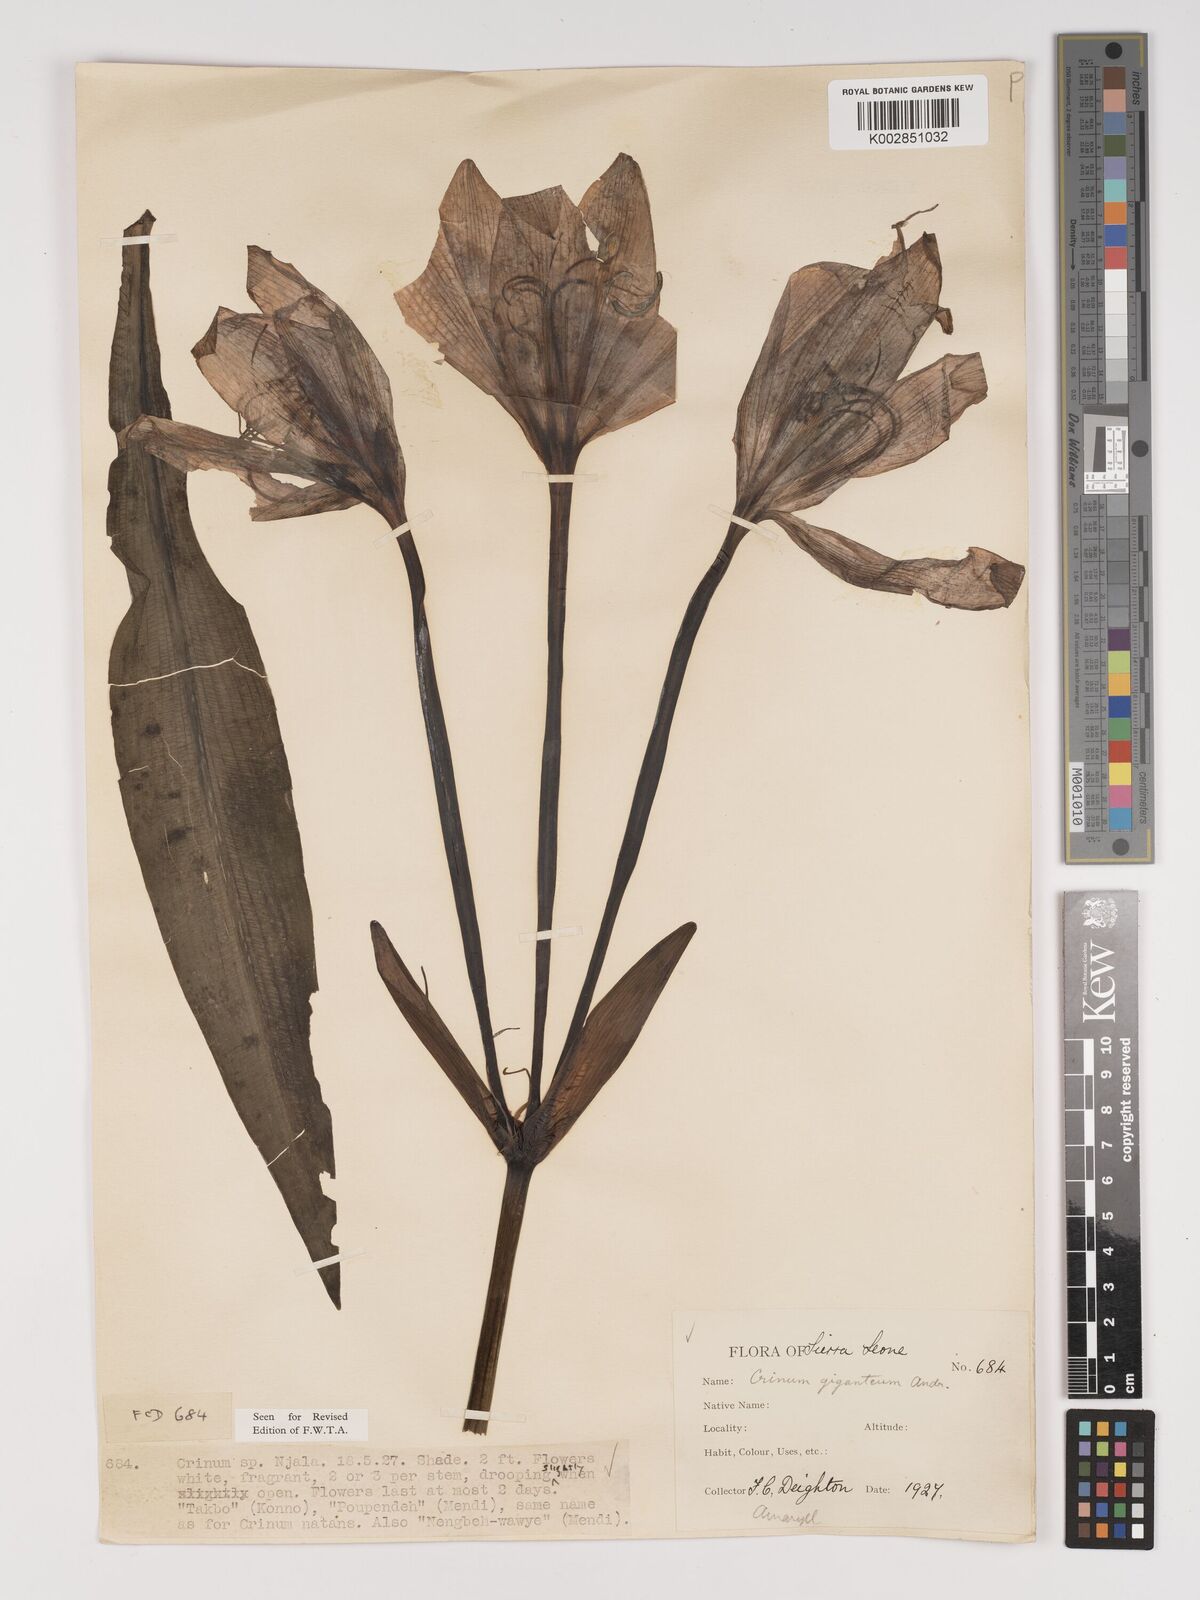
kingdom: Plantae
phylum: Tracheophyta
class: Liliopsida
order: Asparagales
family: Amaryllidaceae
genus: Crinum
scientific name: Crinum jagus
